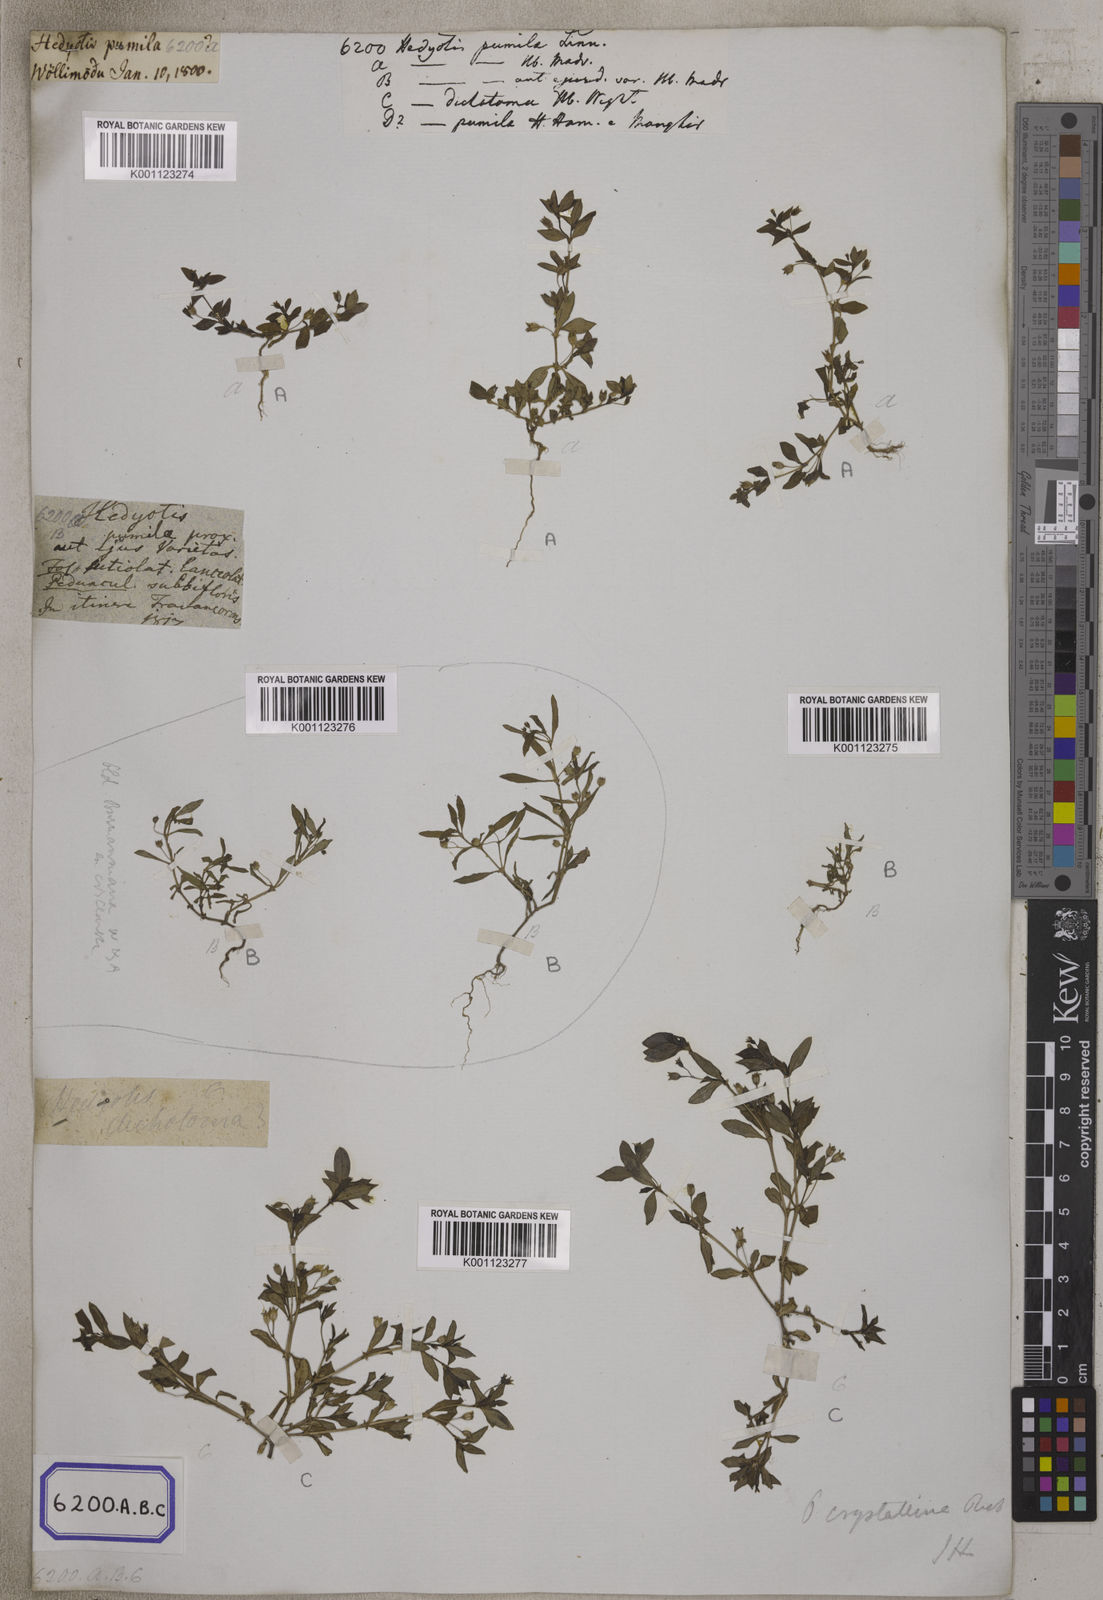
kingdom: Plantae
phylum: Tracheophyta
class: Magnoliopsida
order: Gentianales
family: Rubiaceae
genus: Oldenlandia
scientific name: Oldenlandia pumila
